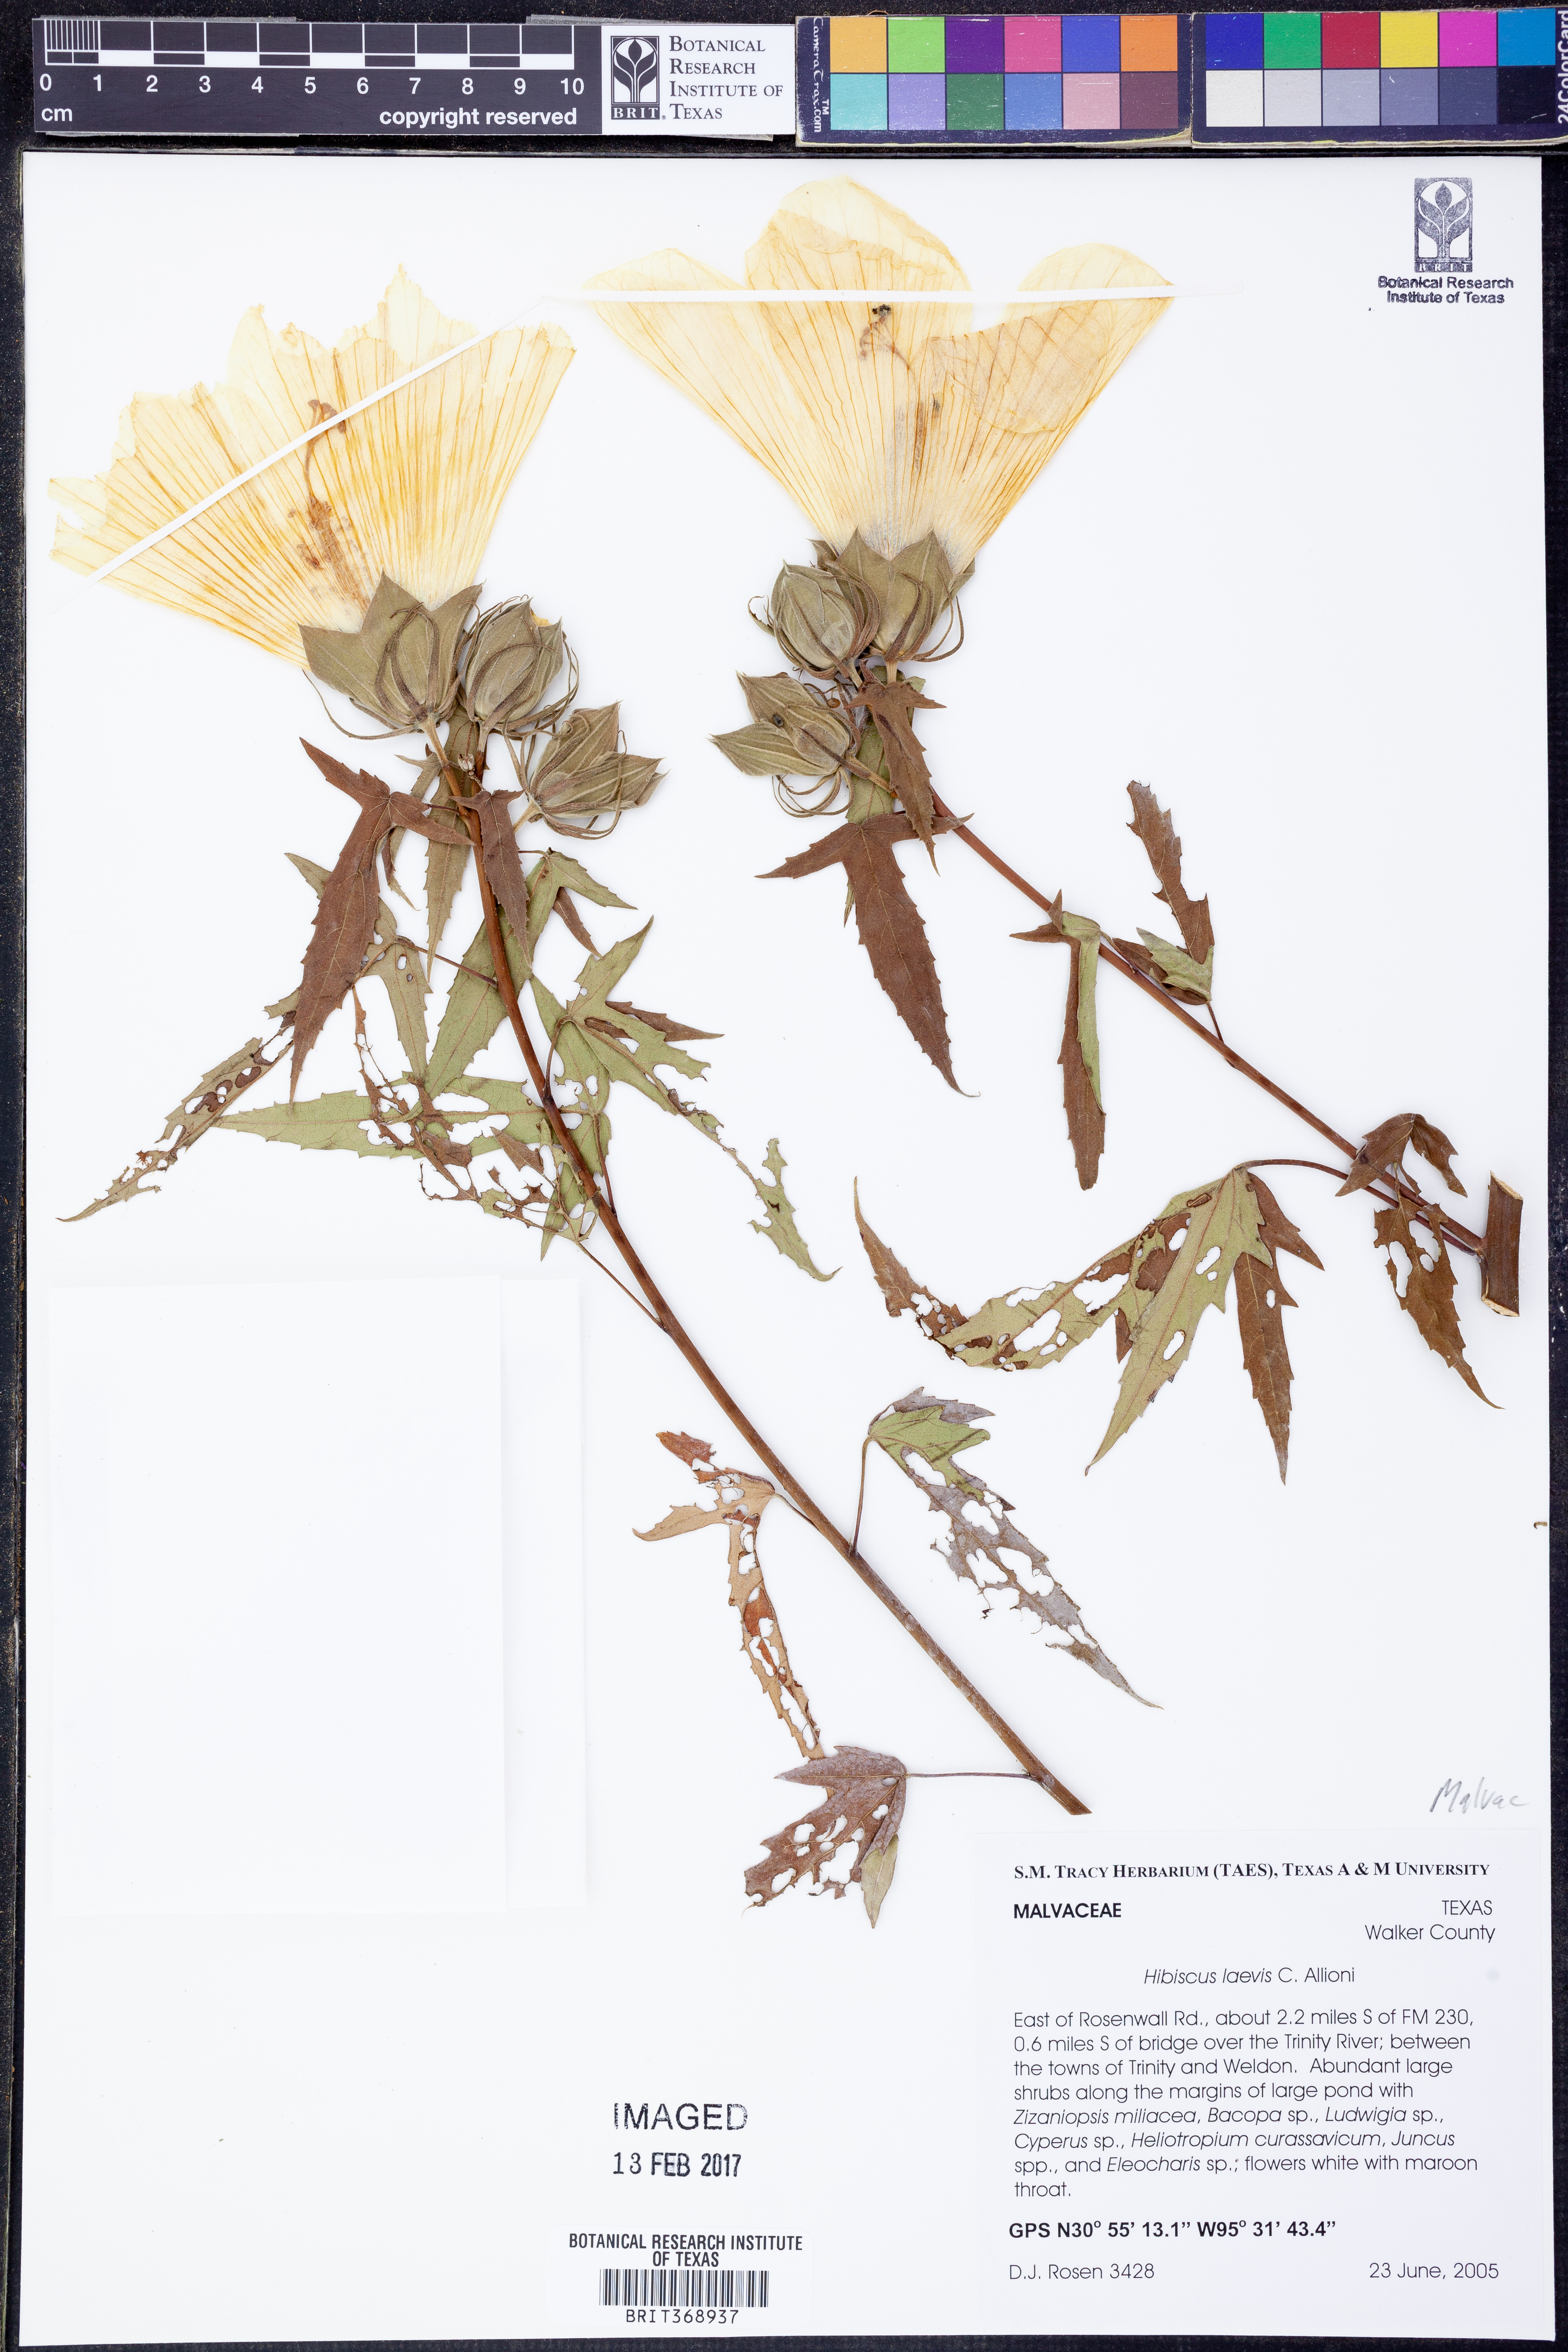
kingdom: Plantae
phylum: Tracheophyta
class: Magnoliopsida
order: Malvales
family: Malvaceae
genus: Hibiscus
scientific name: Hibiscus laevis
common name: Scarlet rose-mallow
